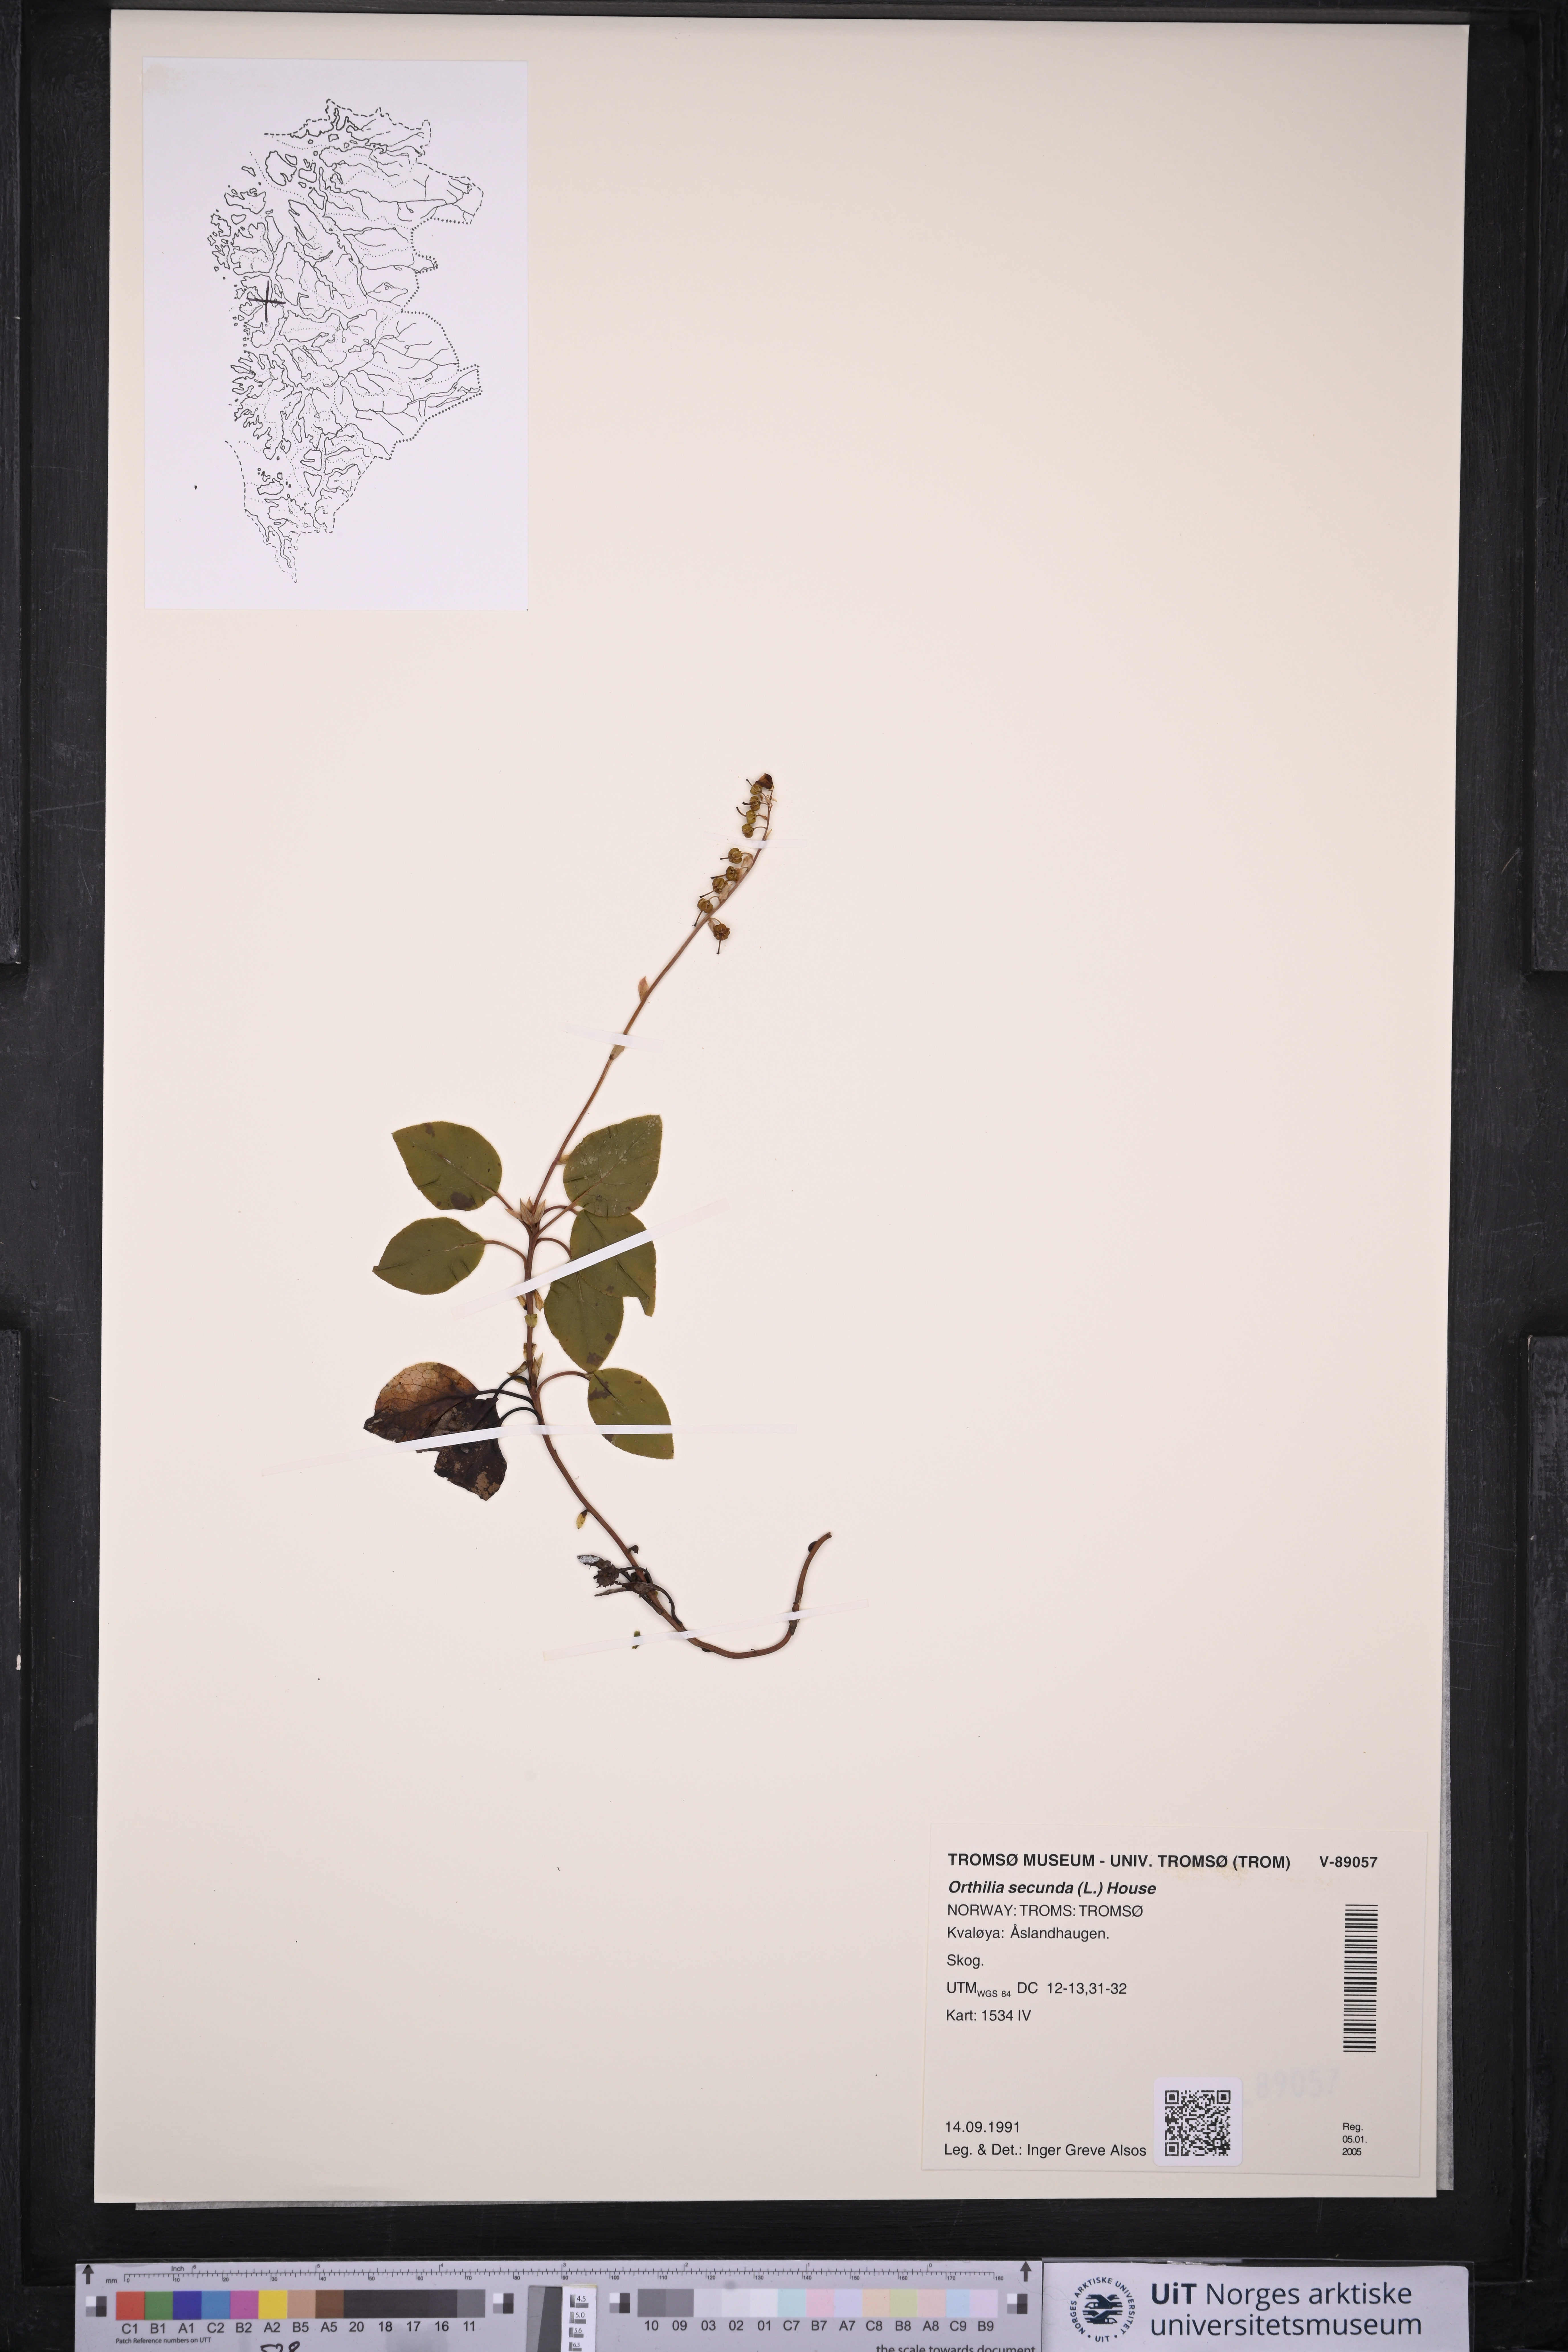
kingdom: Plantae
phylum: Tracheophyta
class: Magnoliopsida
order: Ericales
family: Ericaceae
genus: Orthilia
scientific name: Orthilia secunda
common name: One-sided orthilia
